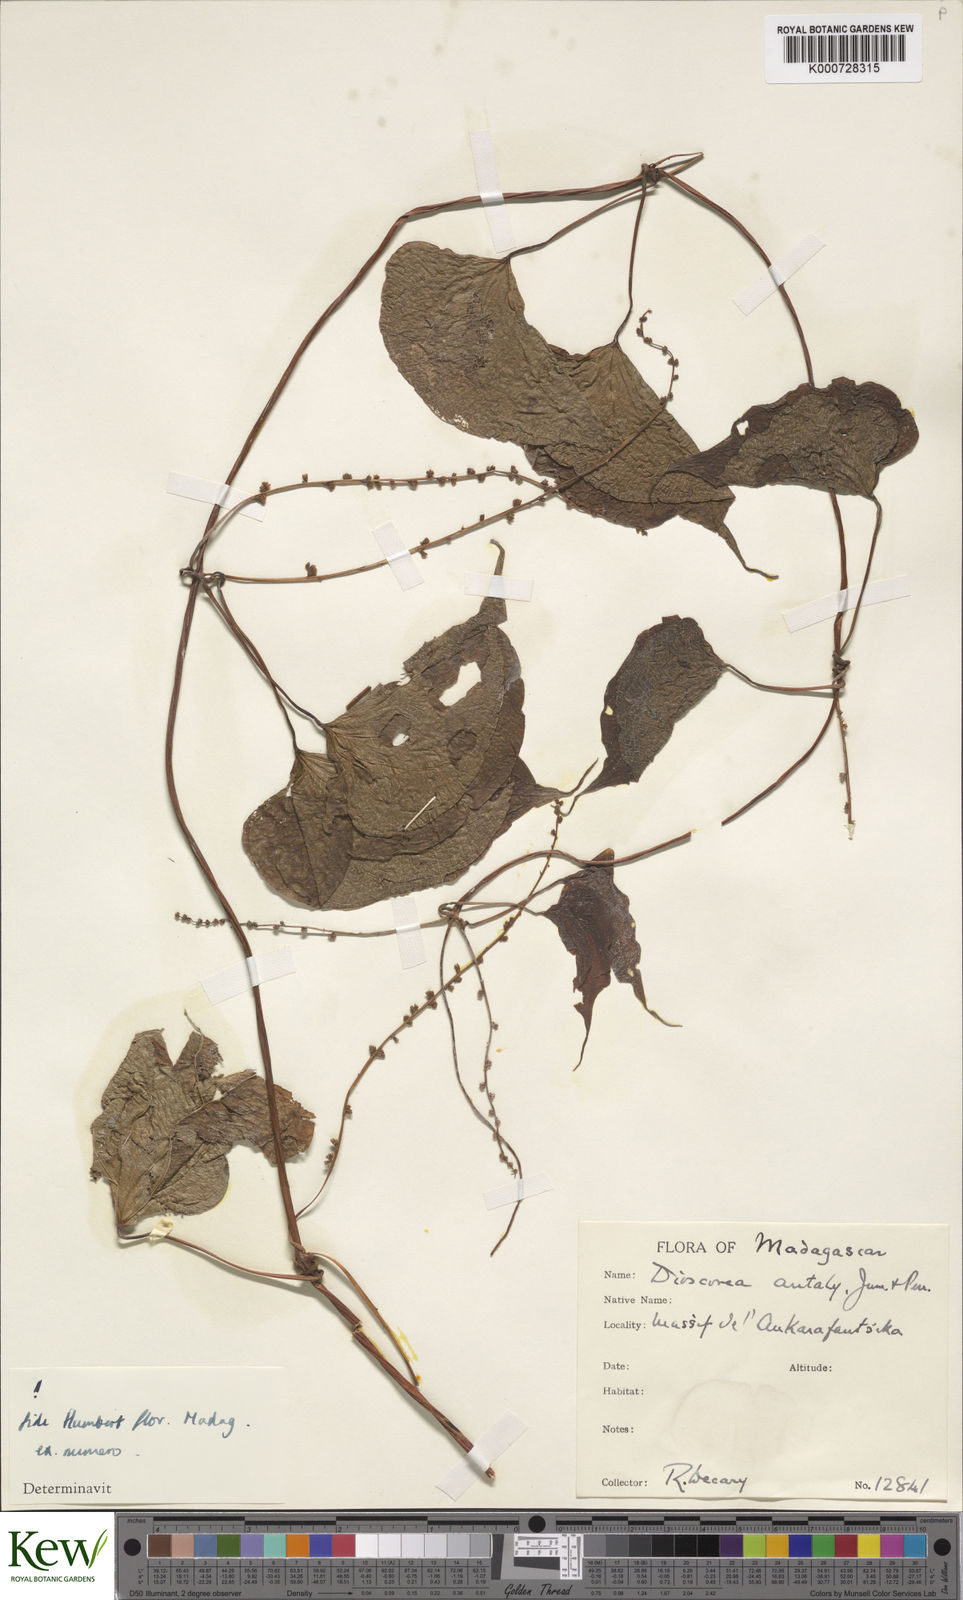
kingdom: Plantae
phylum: Tracheophyta
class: Liliopsida
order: Dioscoreales
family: Dioscoreaceae
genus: Dioscorea
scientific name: Dioscorea antaly
